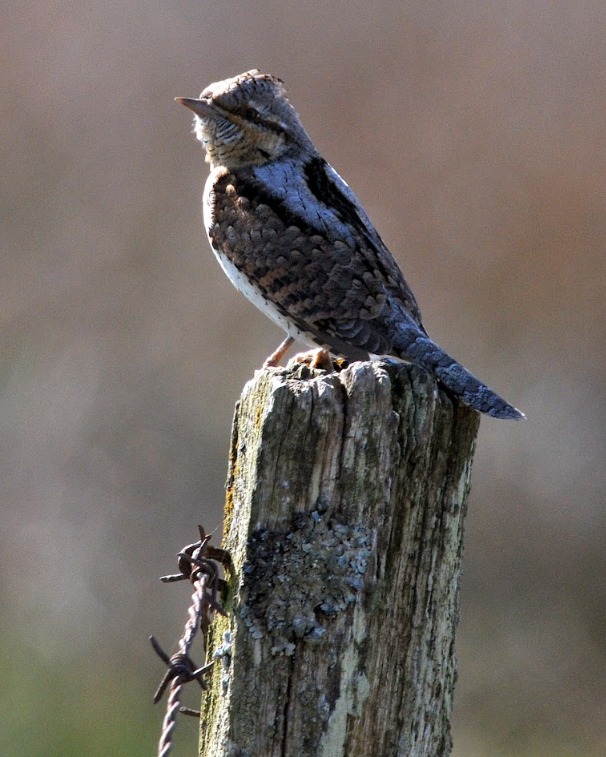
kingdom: Animalia
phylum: Chordata
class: Aves
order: Piciformes
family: Picidae
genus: Jynx
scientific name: Jynx torquilla
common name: Vendehals
